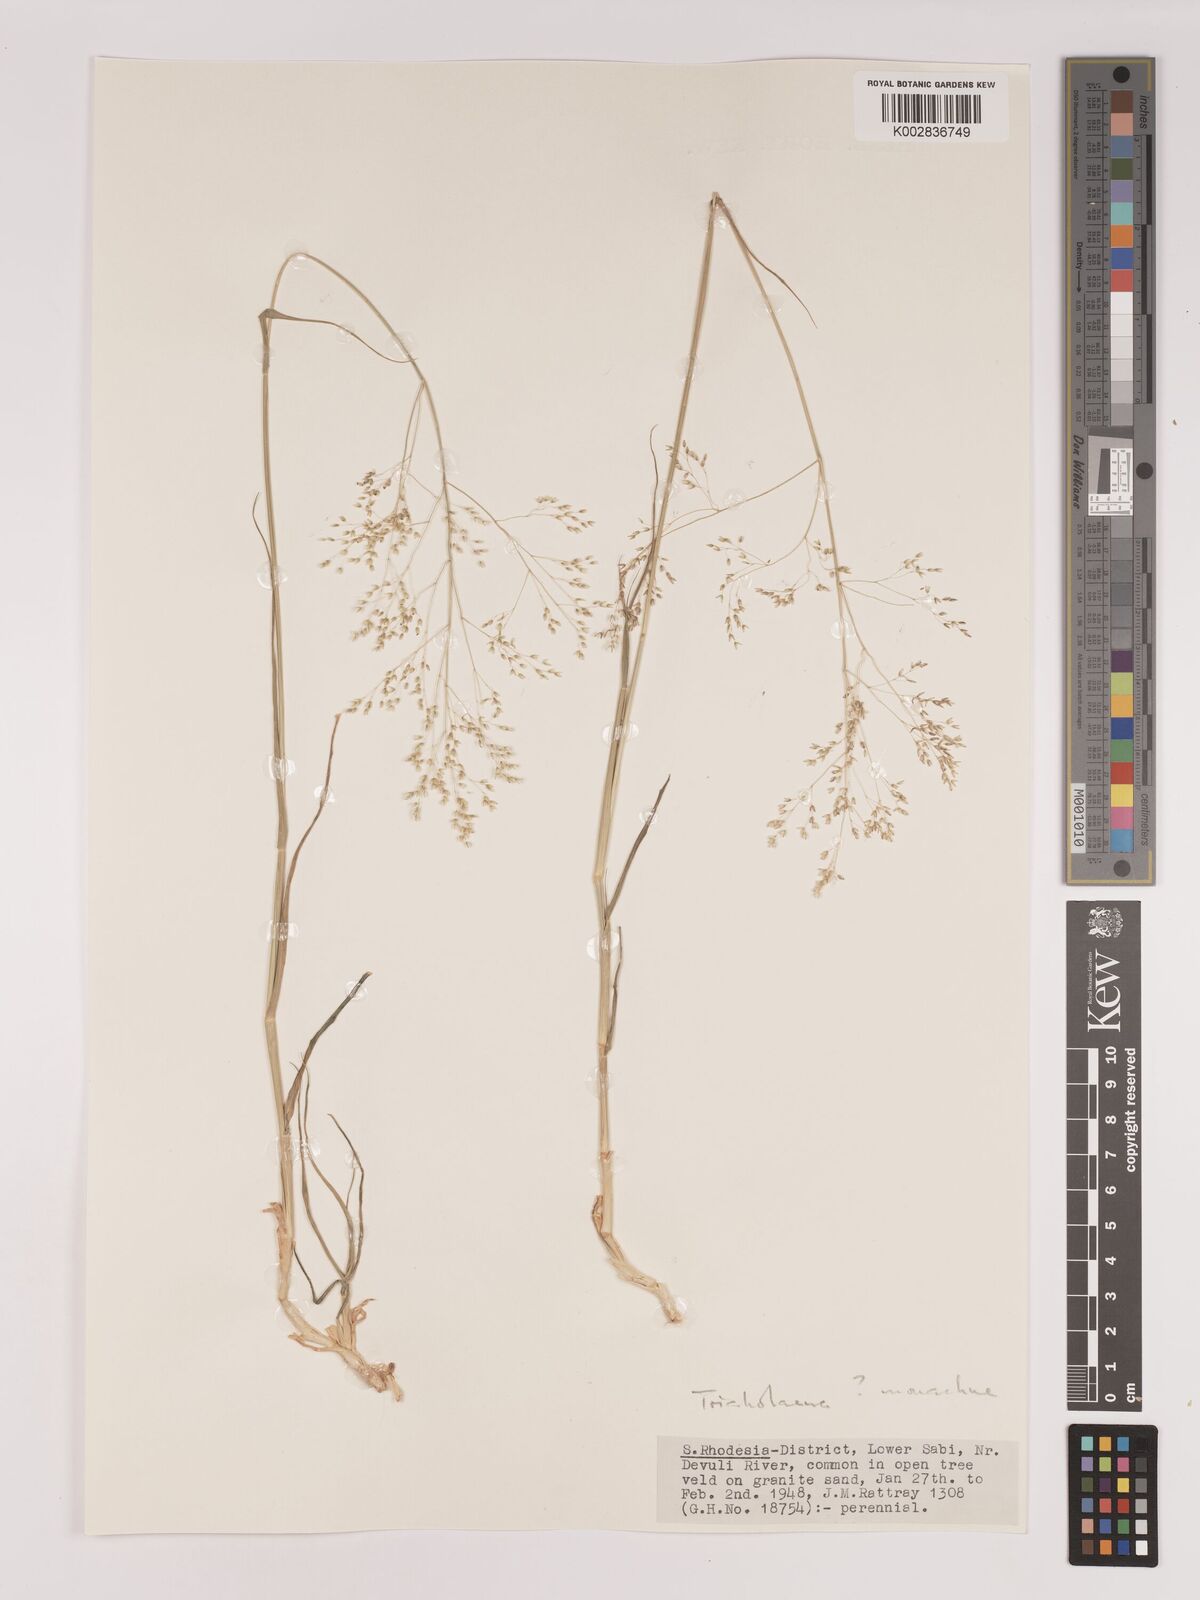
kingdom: Plantae
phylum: Tracheophyta
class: Liliopsida
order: Poales
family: Poaceae
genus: Tricholaena
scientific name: Tricholaena monachne
